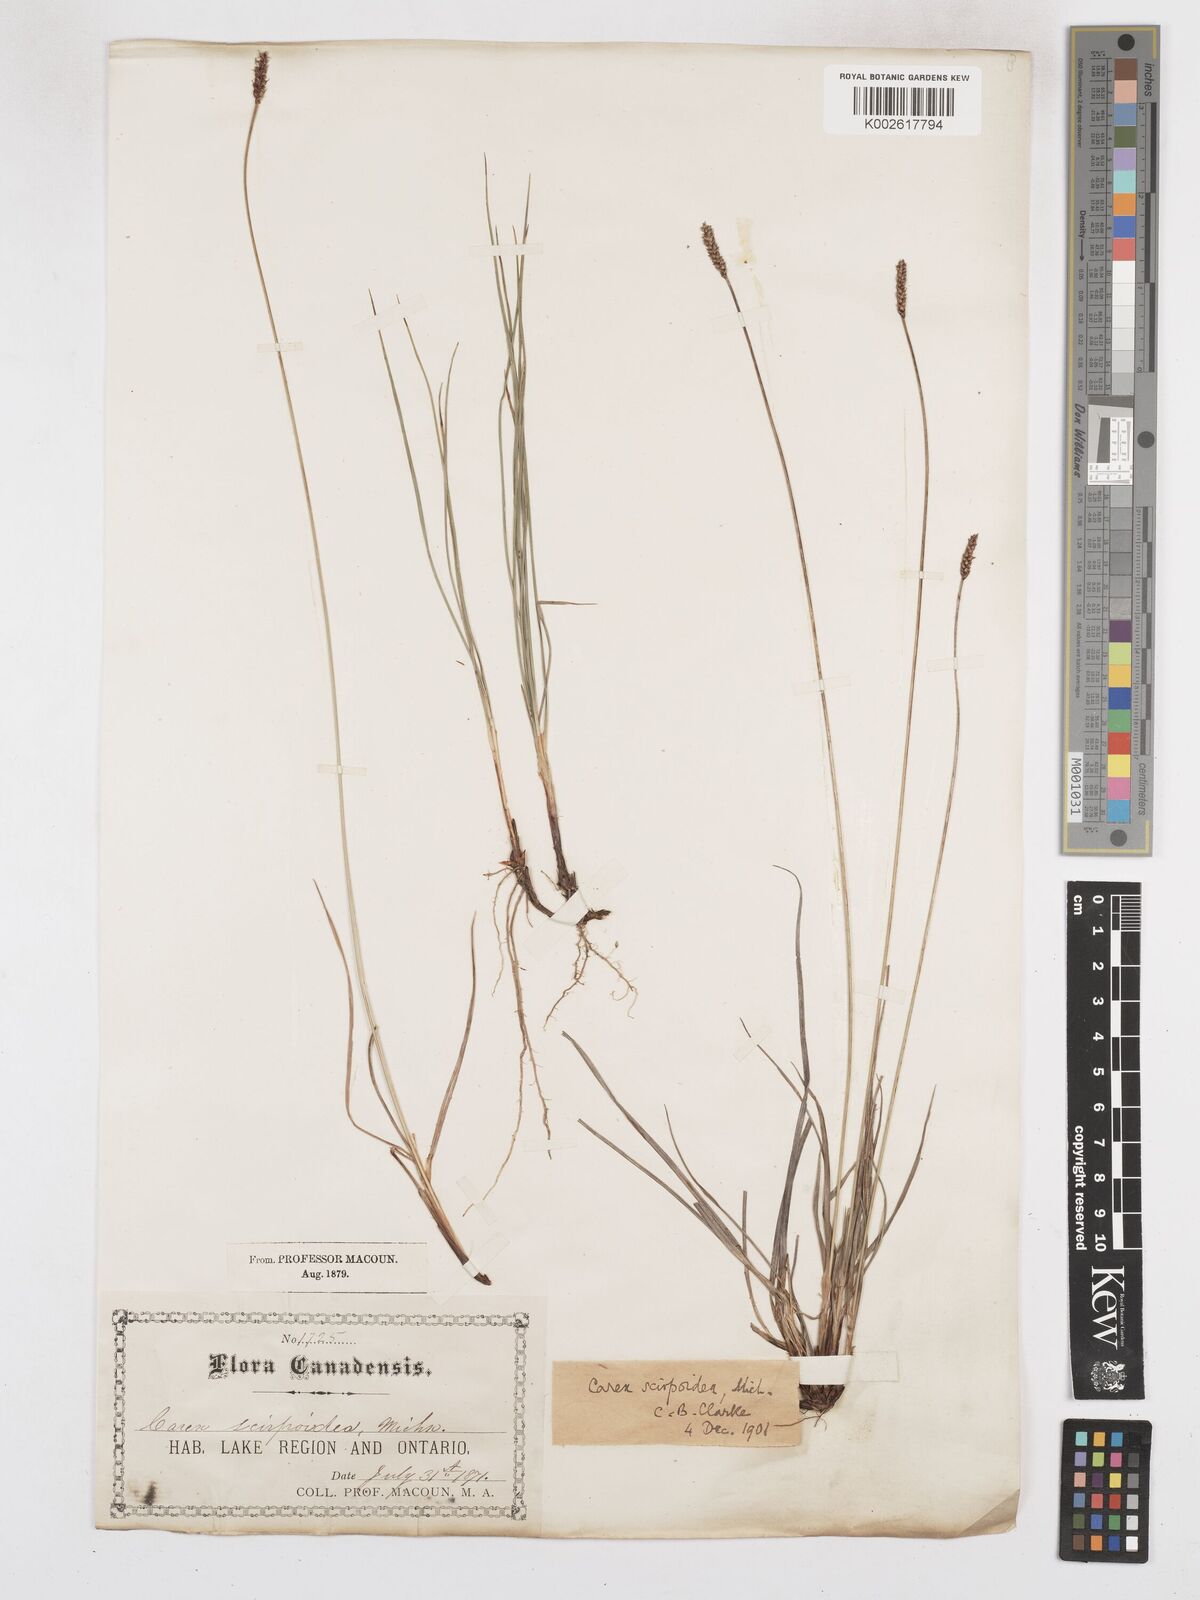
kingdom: Plantae
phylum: Tracheophyta
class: Liliopsida
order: Poales
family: Cyperaceae
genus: Carex
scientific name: Carex scirpoidea
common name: Canada single-spike sedge
